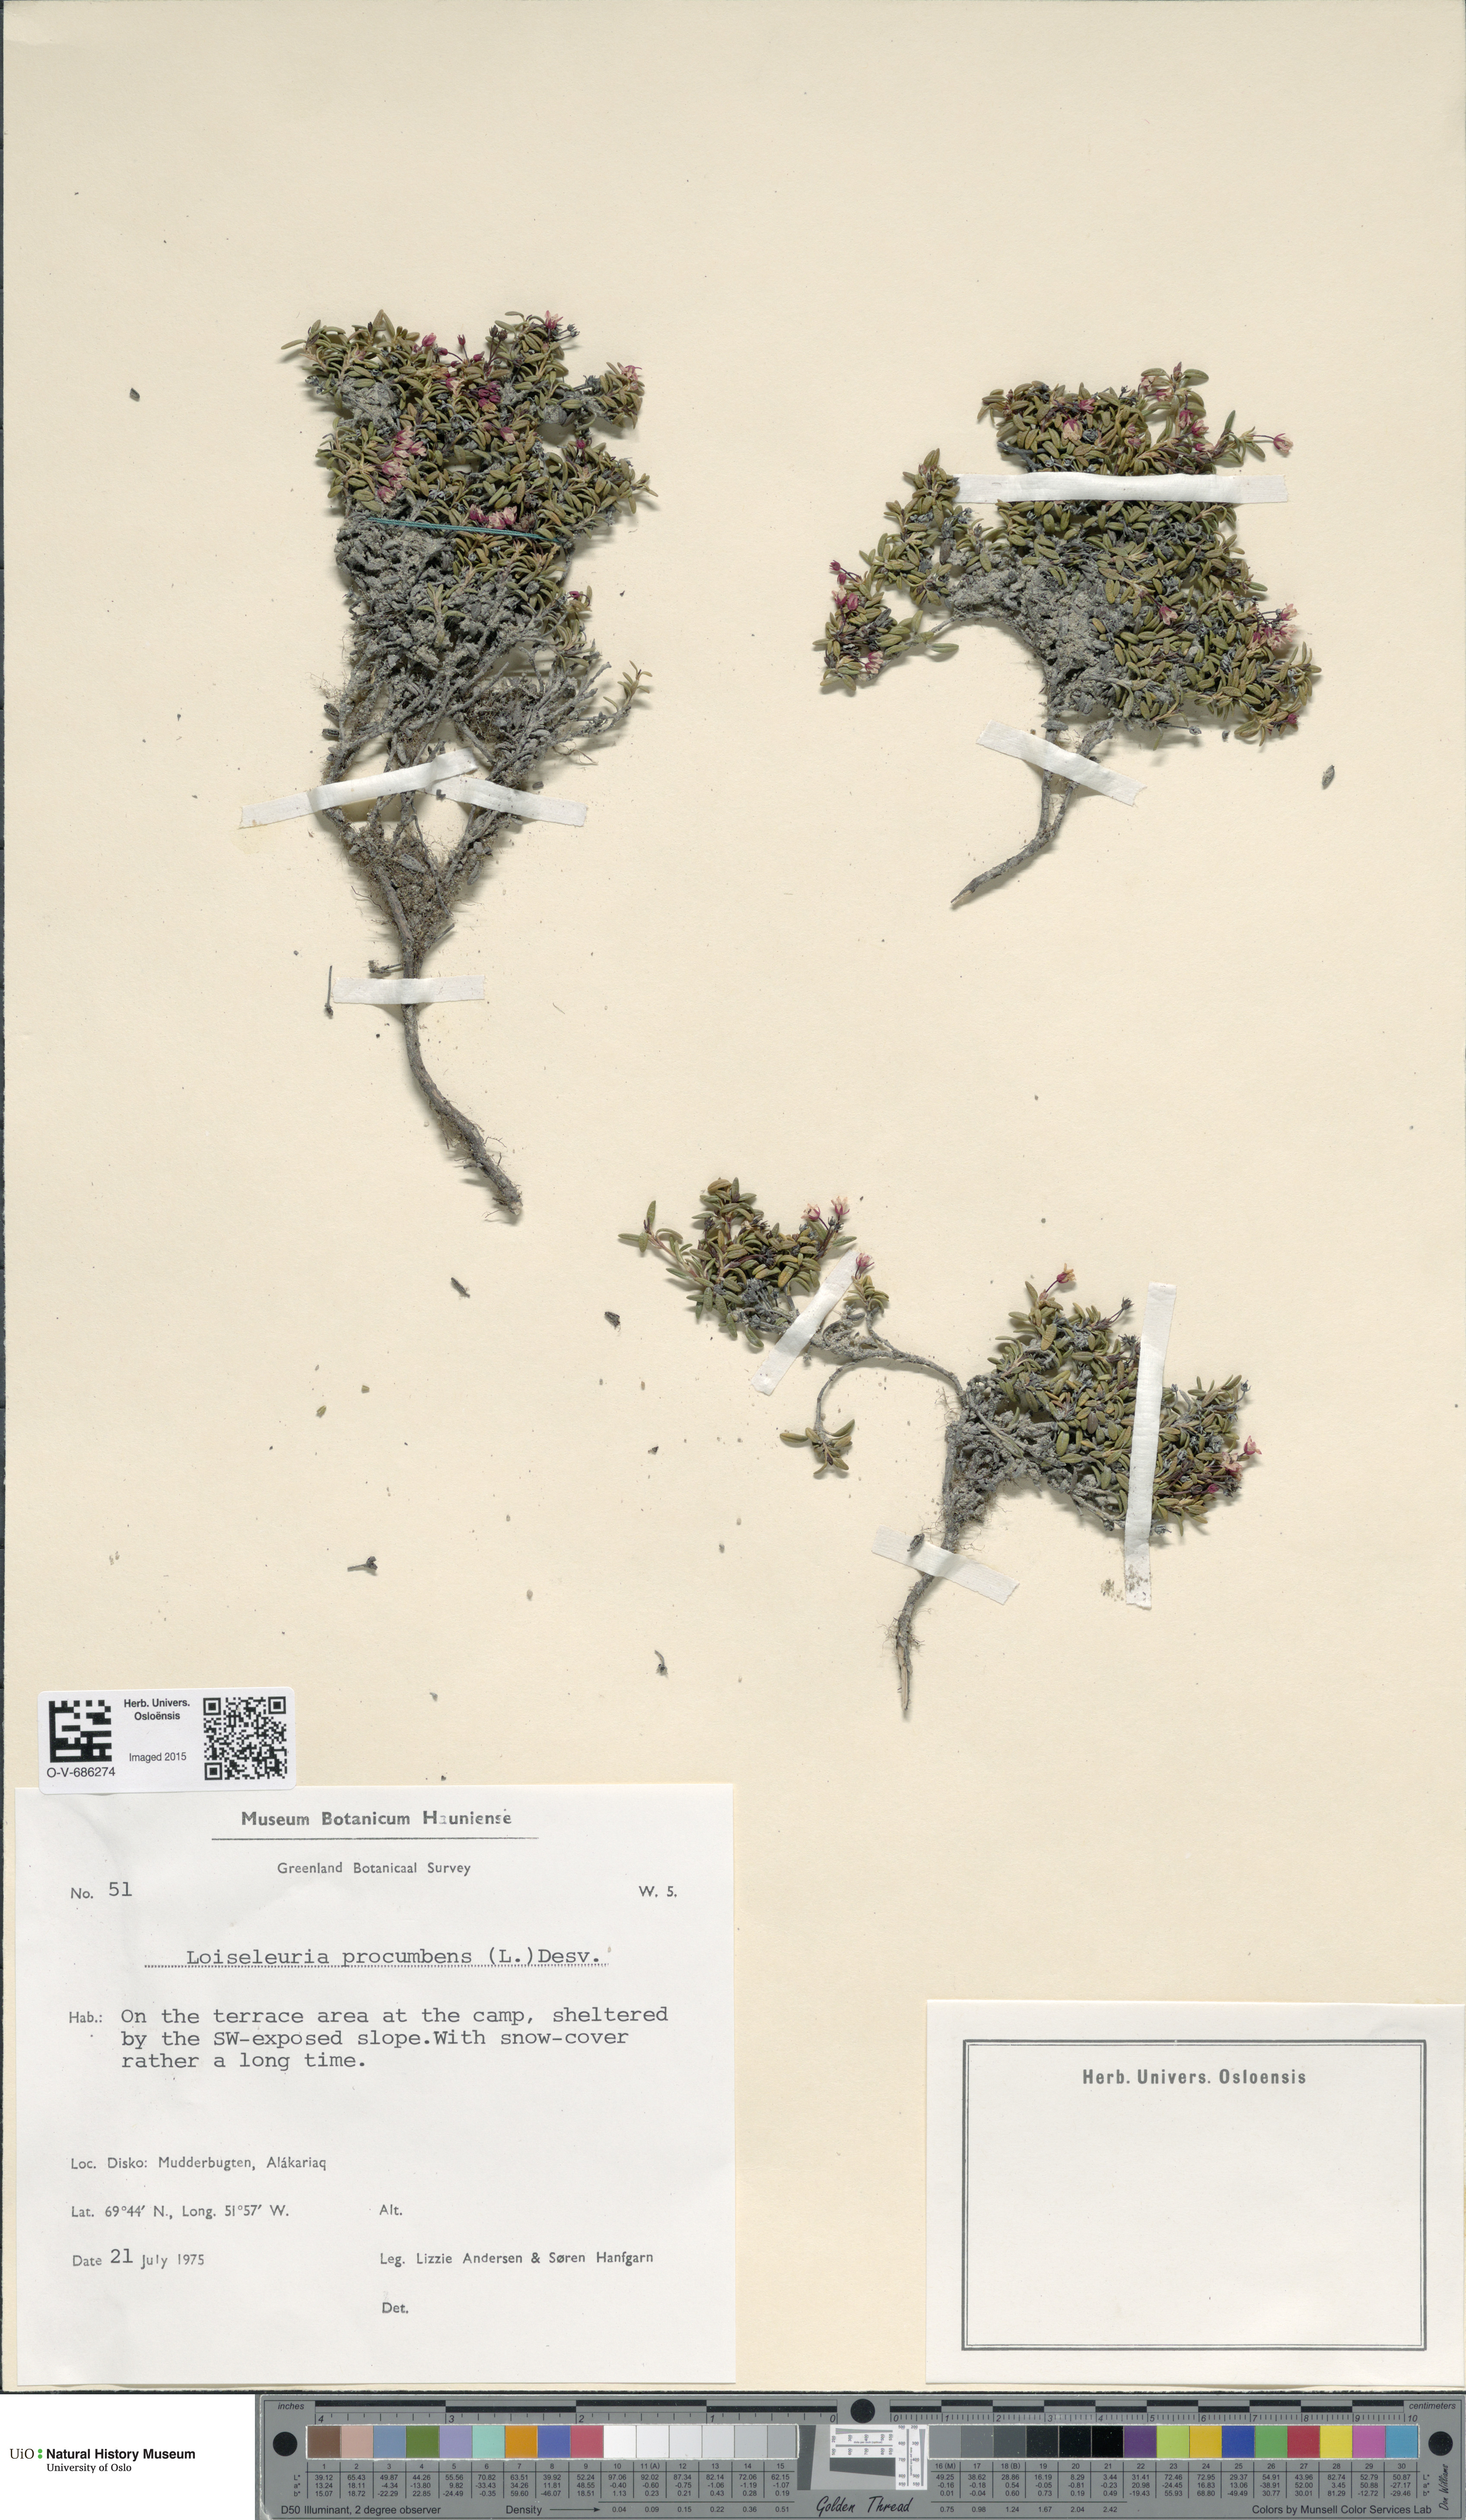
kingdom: Plantae
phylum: Tracheophyta
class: Magnoliopsida
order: Ericales
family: Ericaceae
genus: Kalmia
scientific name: Kalmia procumbens
